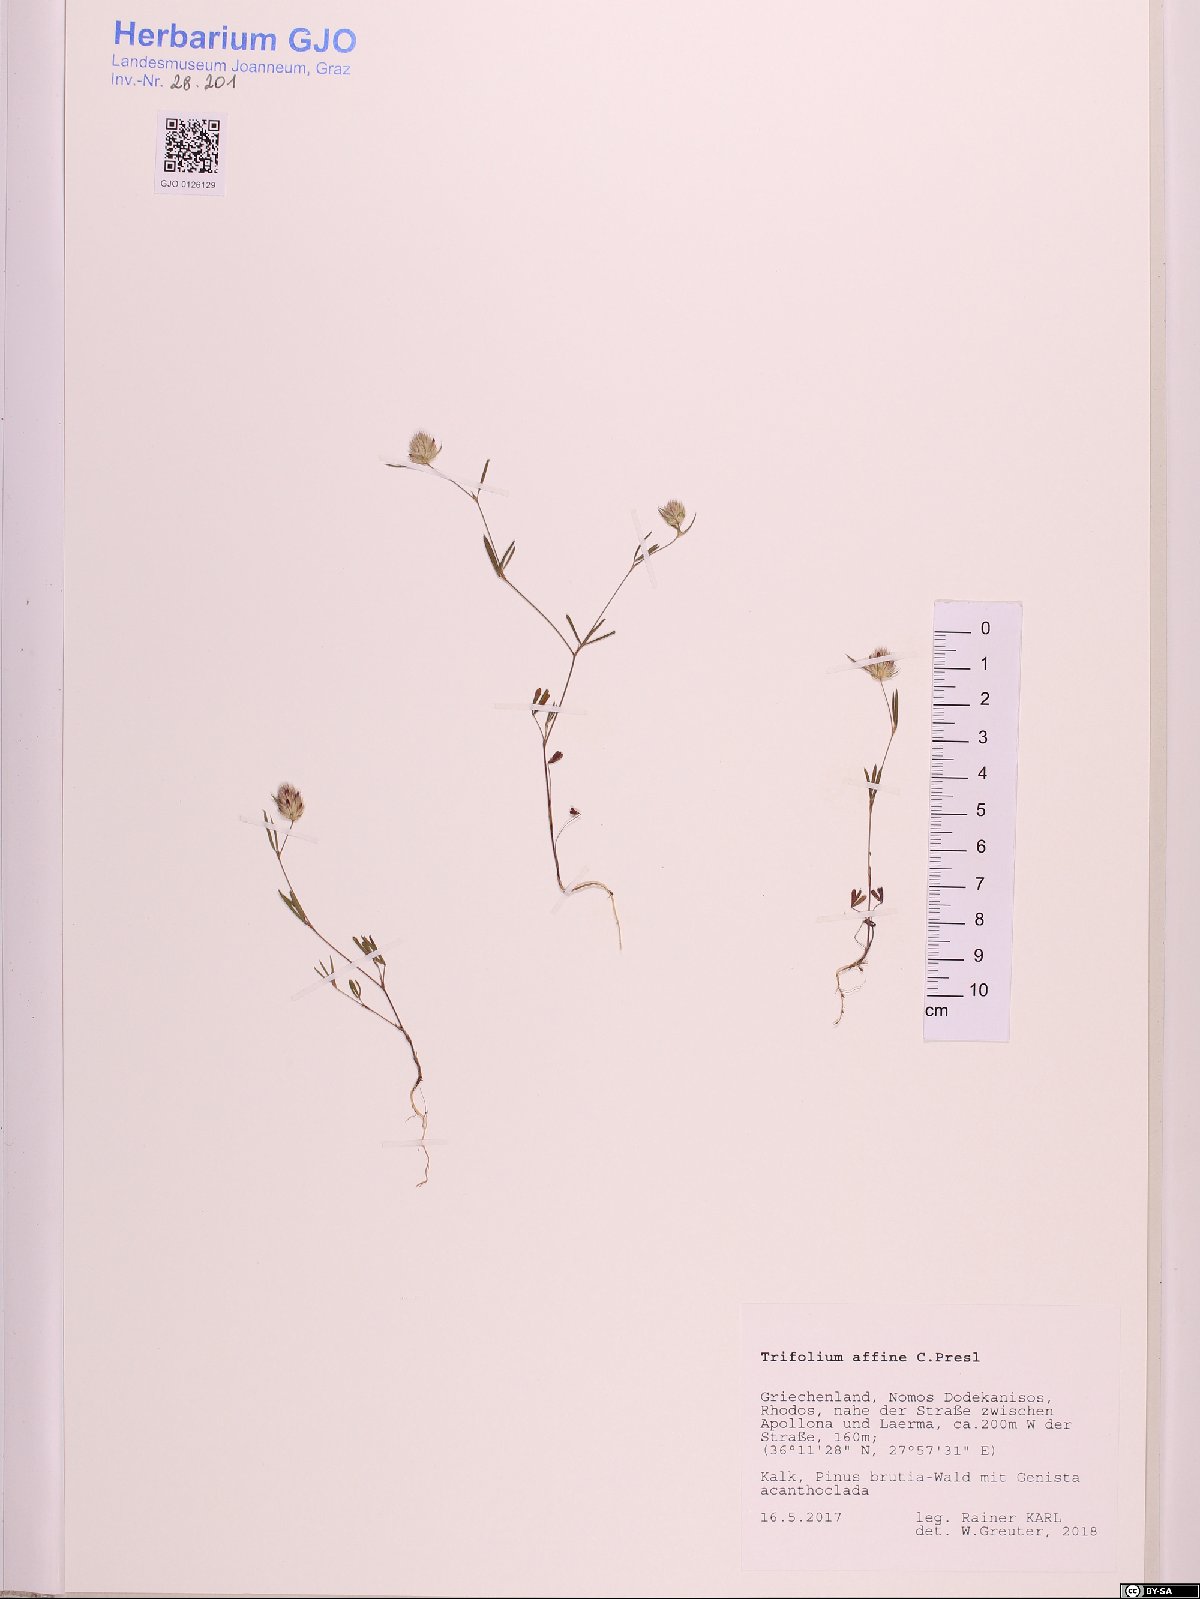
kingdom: Plantae
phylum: Tracheophyta
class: Magnoliopsida
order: Fabales
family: Fabaceae
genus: Trifolium
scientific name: Trifolium affine
